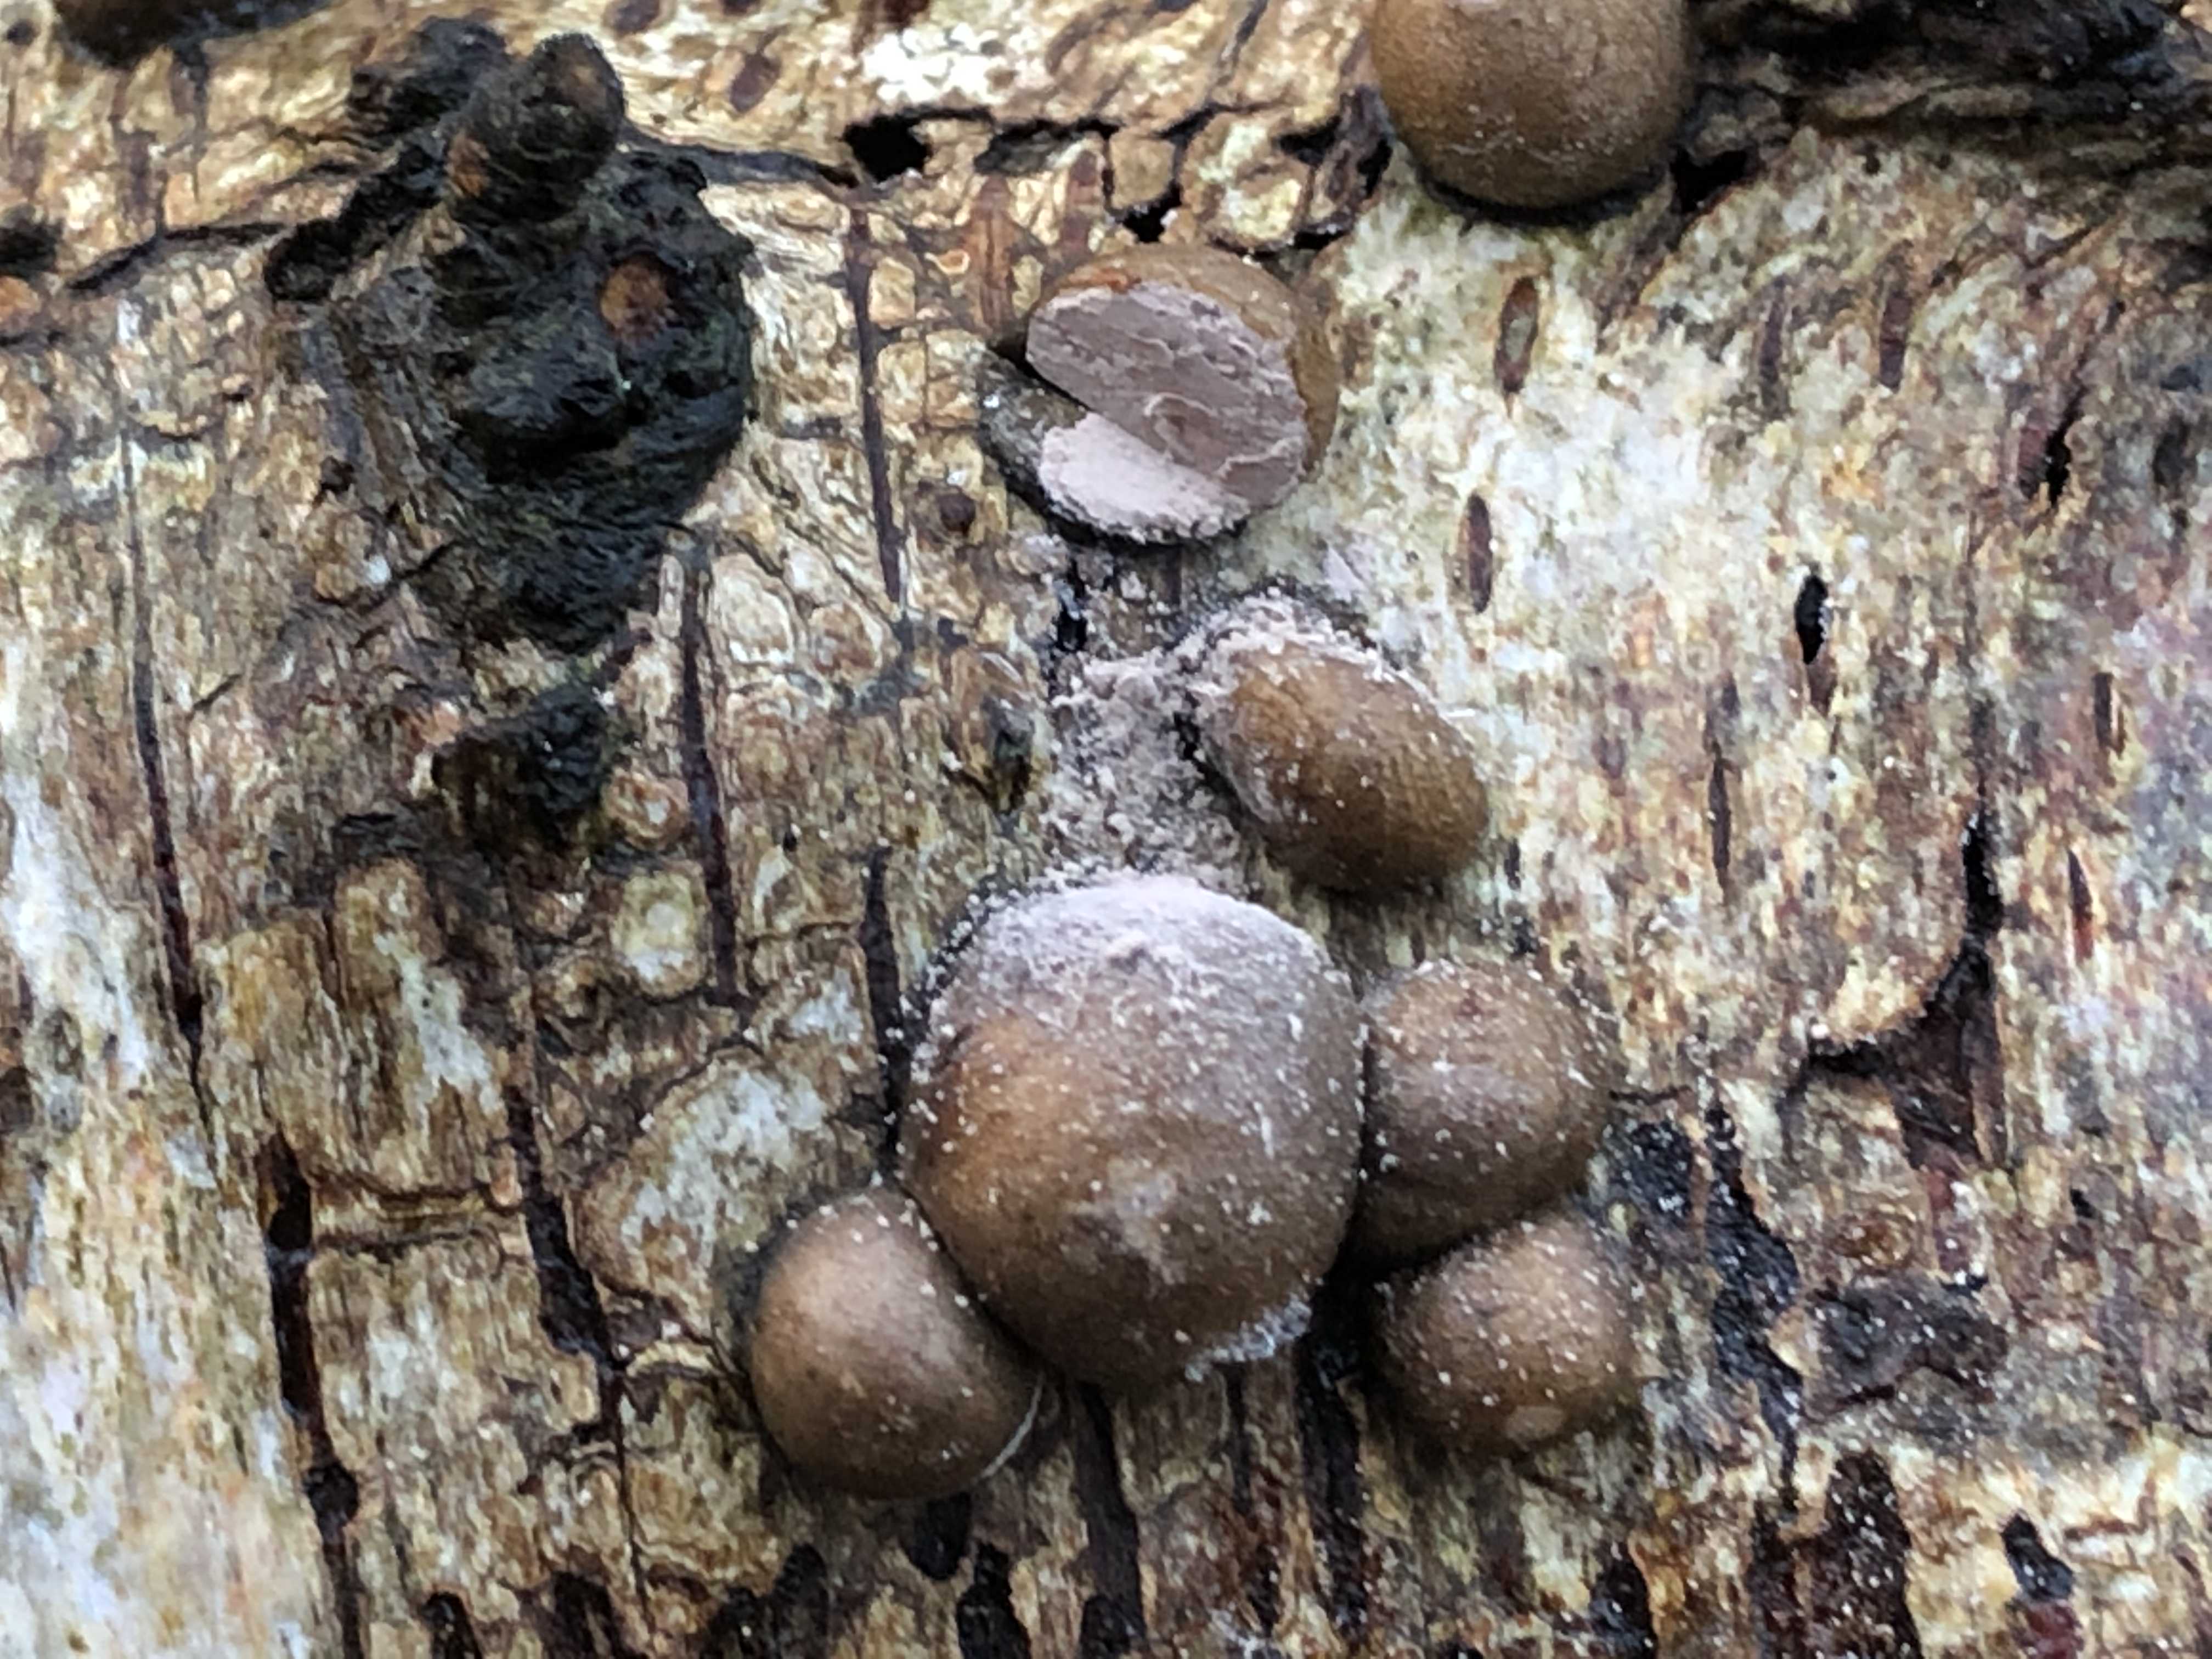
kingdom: Protozoa
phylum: Mycetozoa
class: Myxomycetes
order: Cribrariales
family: Tubiferaceae
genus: Lycogala
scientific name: Lycogala epidendrum
